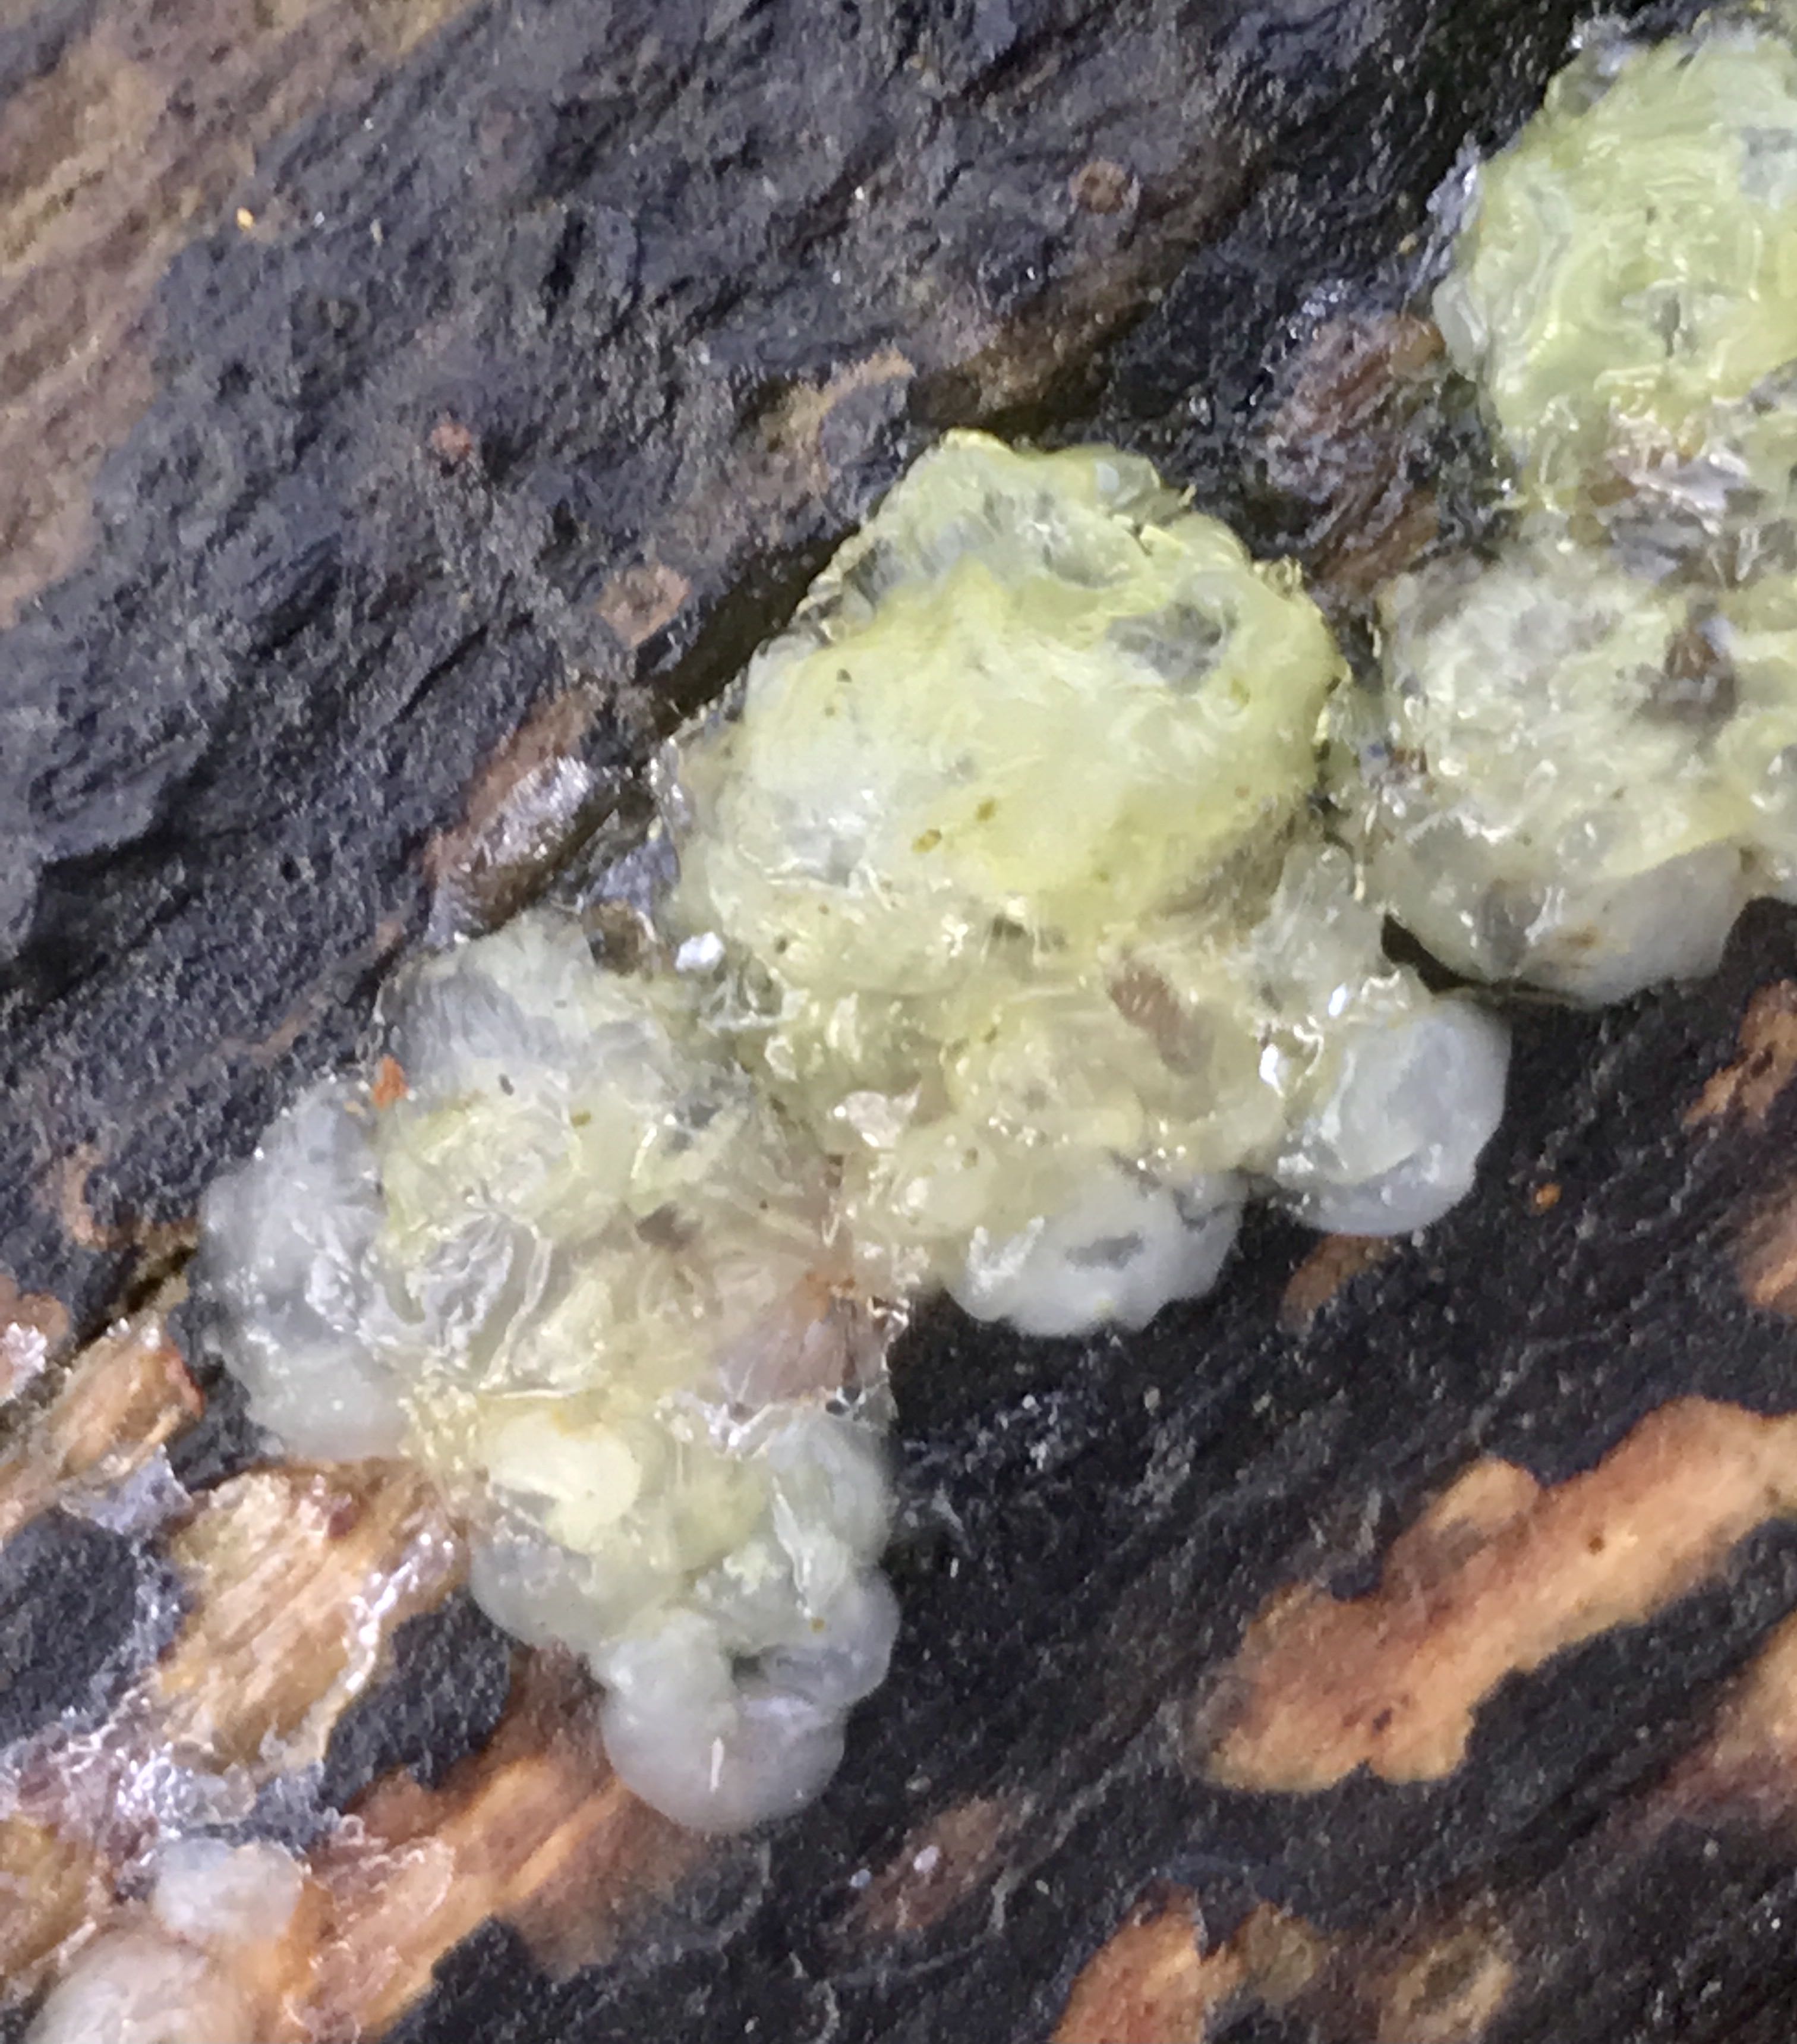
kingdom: Fungi
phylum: Basidiomycota
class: Agaricomycetes
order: Auriculariales
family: Hyaloriaceae
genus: Myxarium
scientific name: Myxarium nucleatum
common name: klar bævretop
